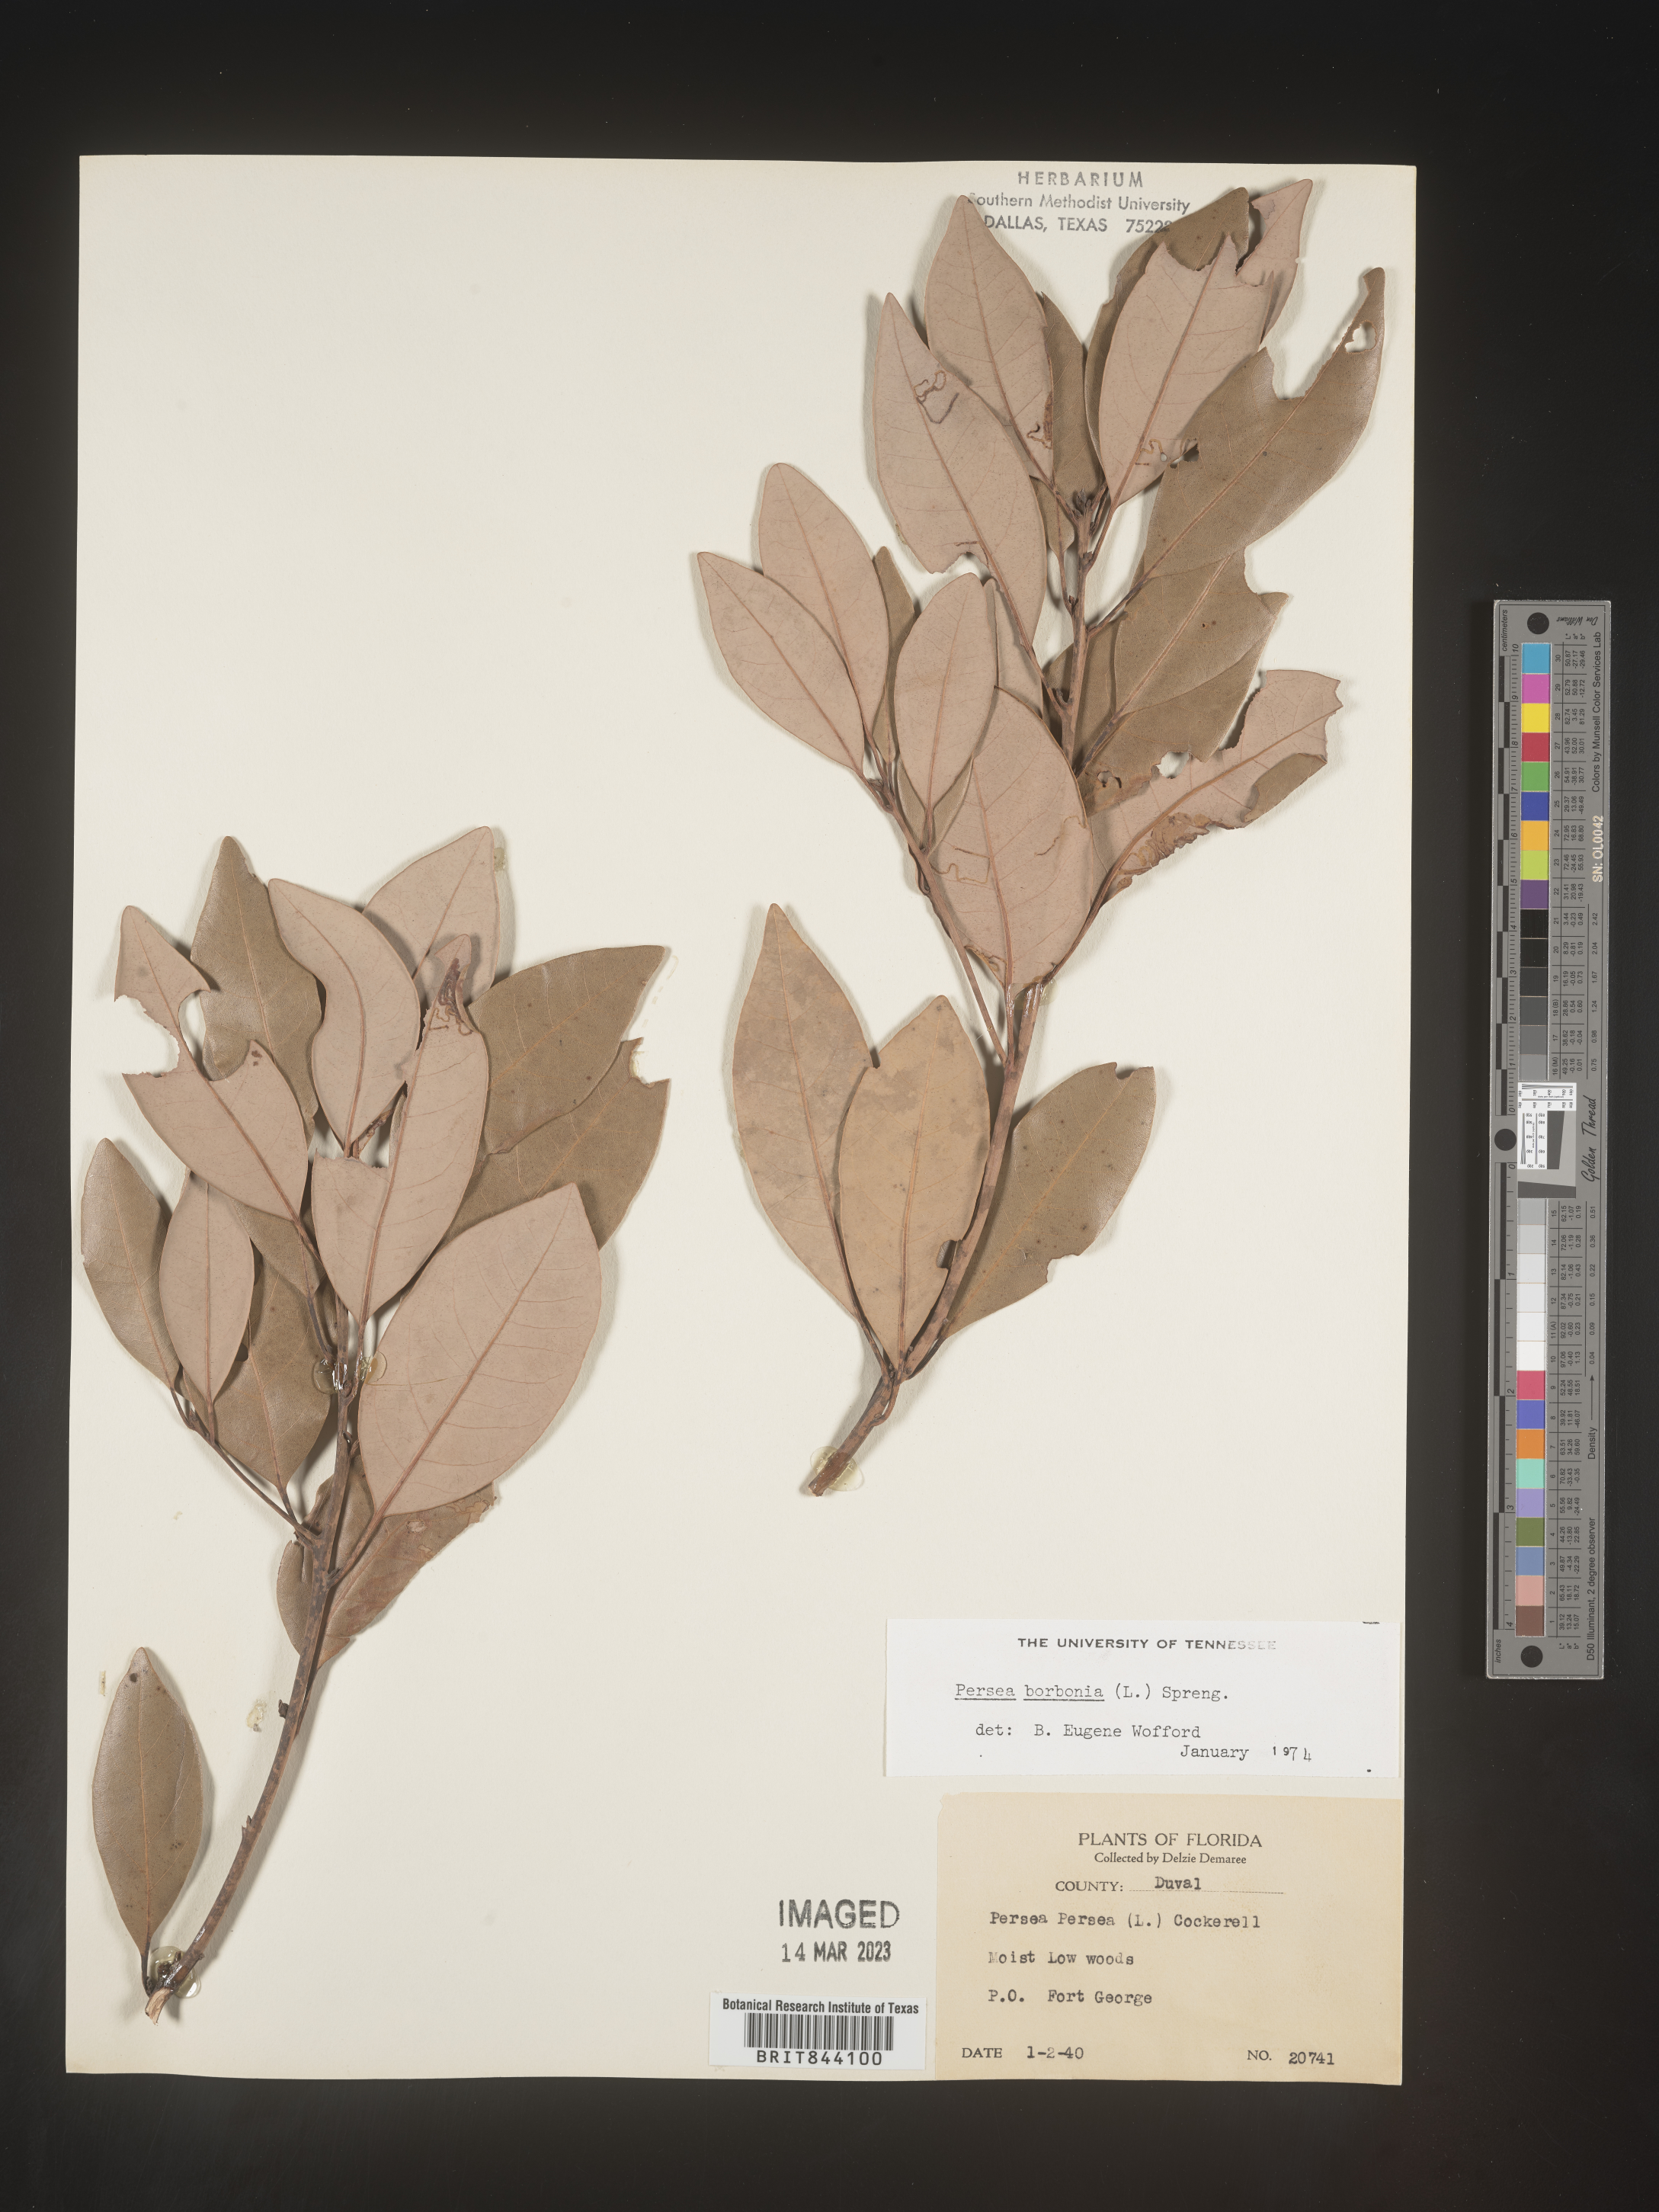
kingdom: Plantae
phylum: Tracheophyta
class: Magnoliopsida
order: Laurales
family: Lauraceae
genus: Persea
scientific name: Persea borbonia
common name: Redbay
